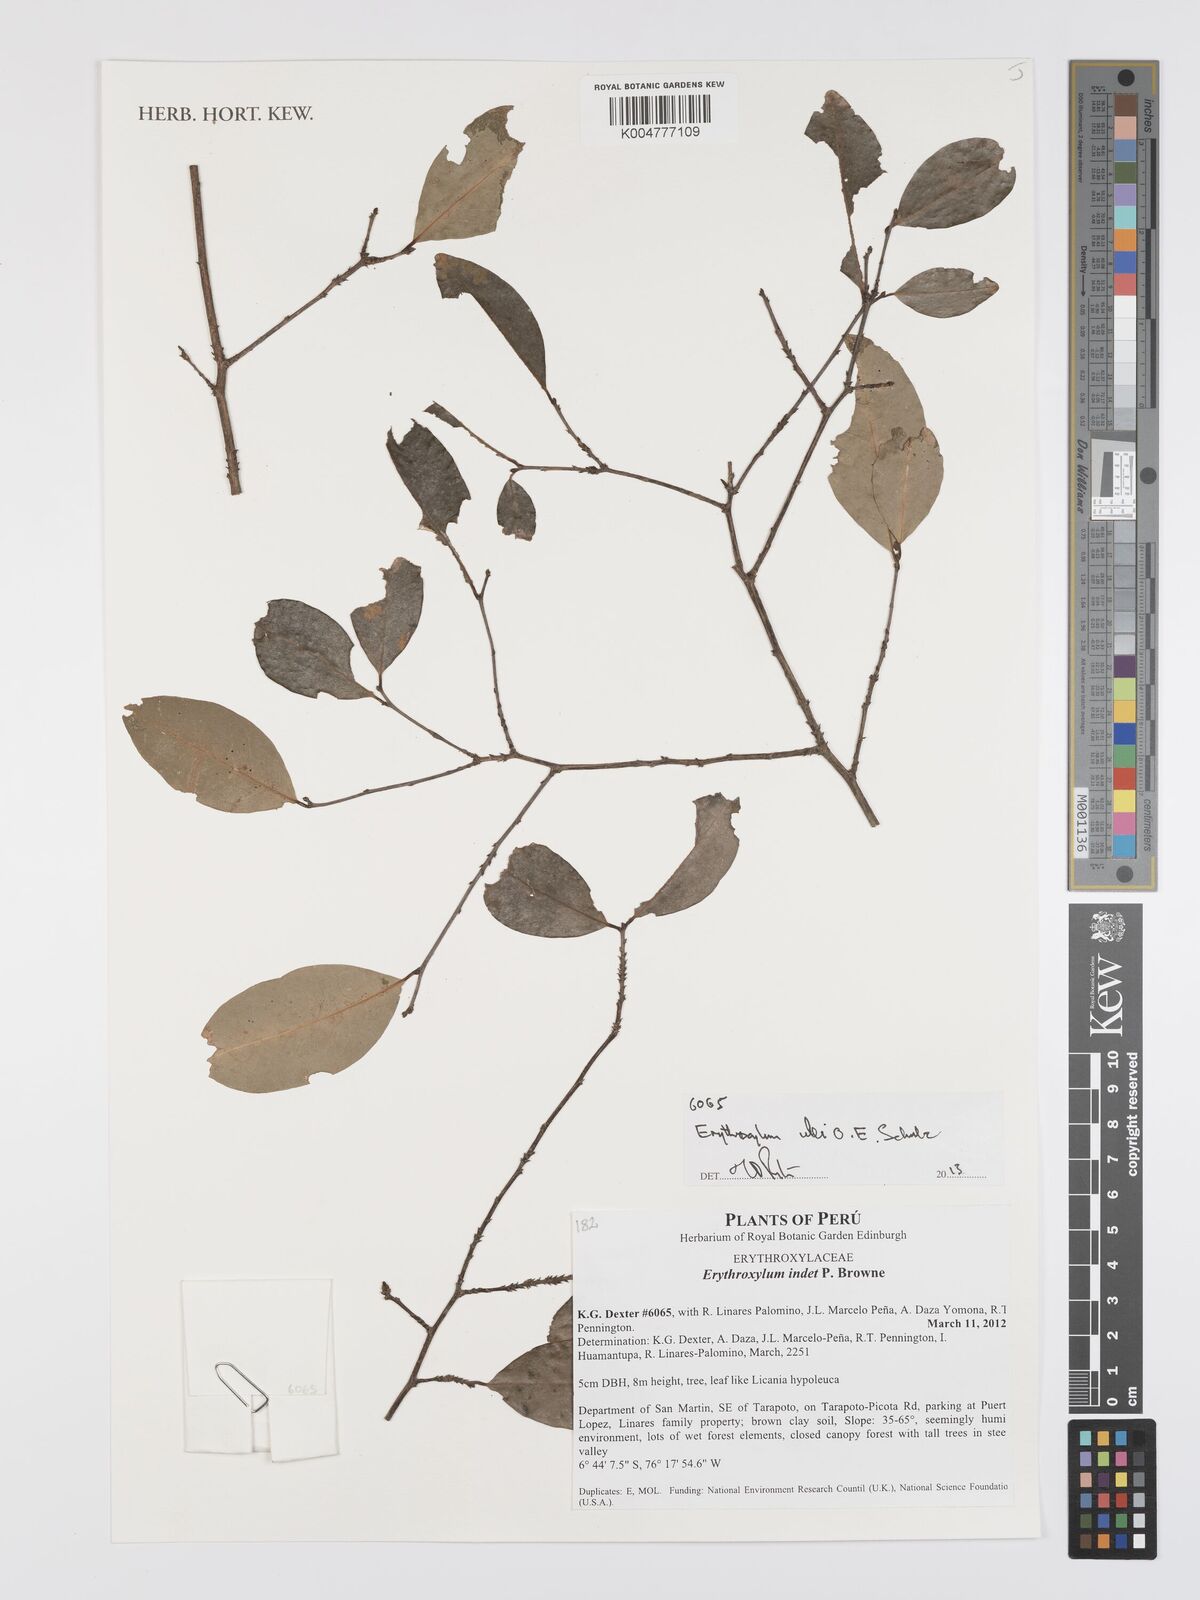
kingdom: Plantae
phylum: Tracheophyta
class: Magnoliopsida
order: Malpighiales
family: Erythroxylaceae
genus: Erythroxylum
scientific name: Erythroxylum ulei
